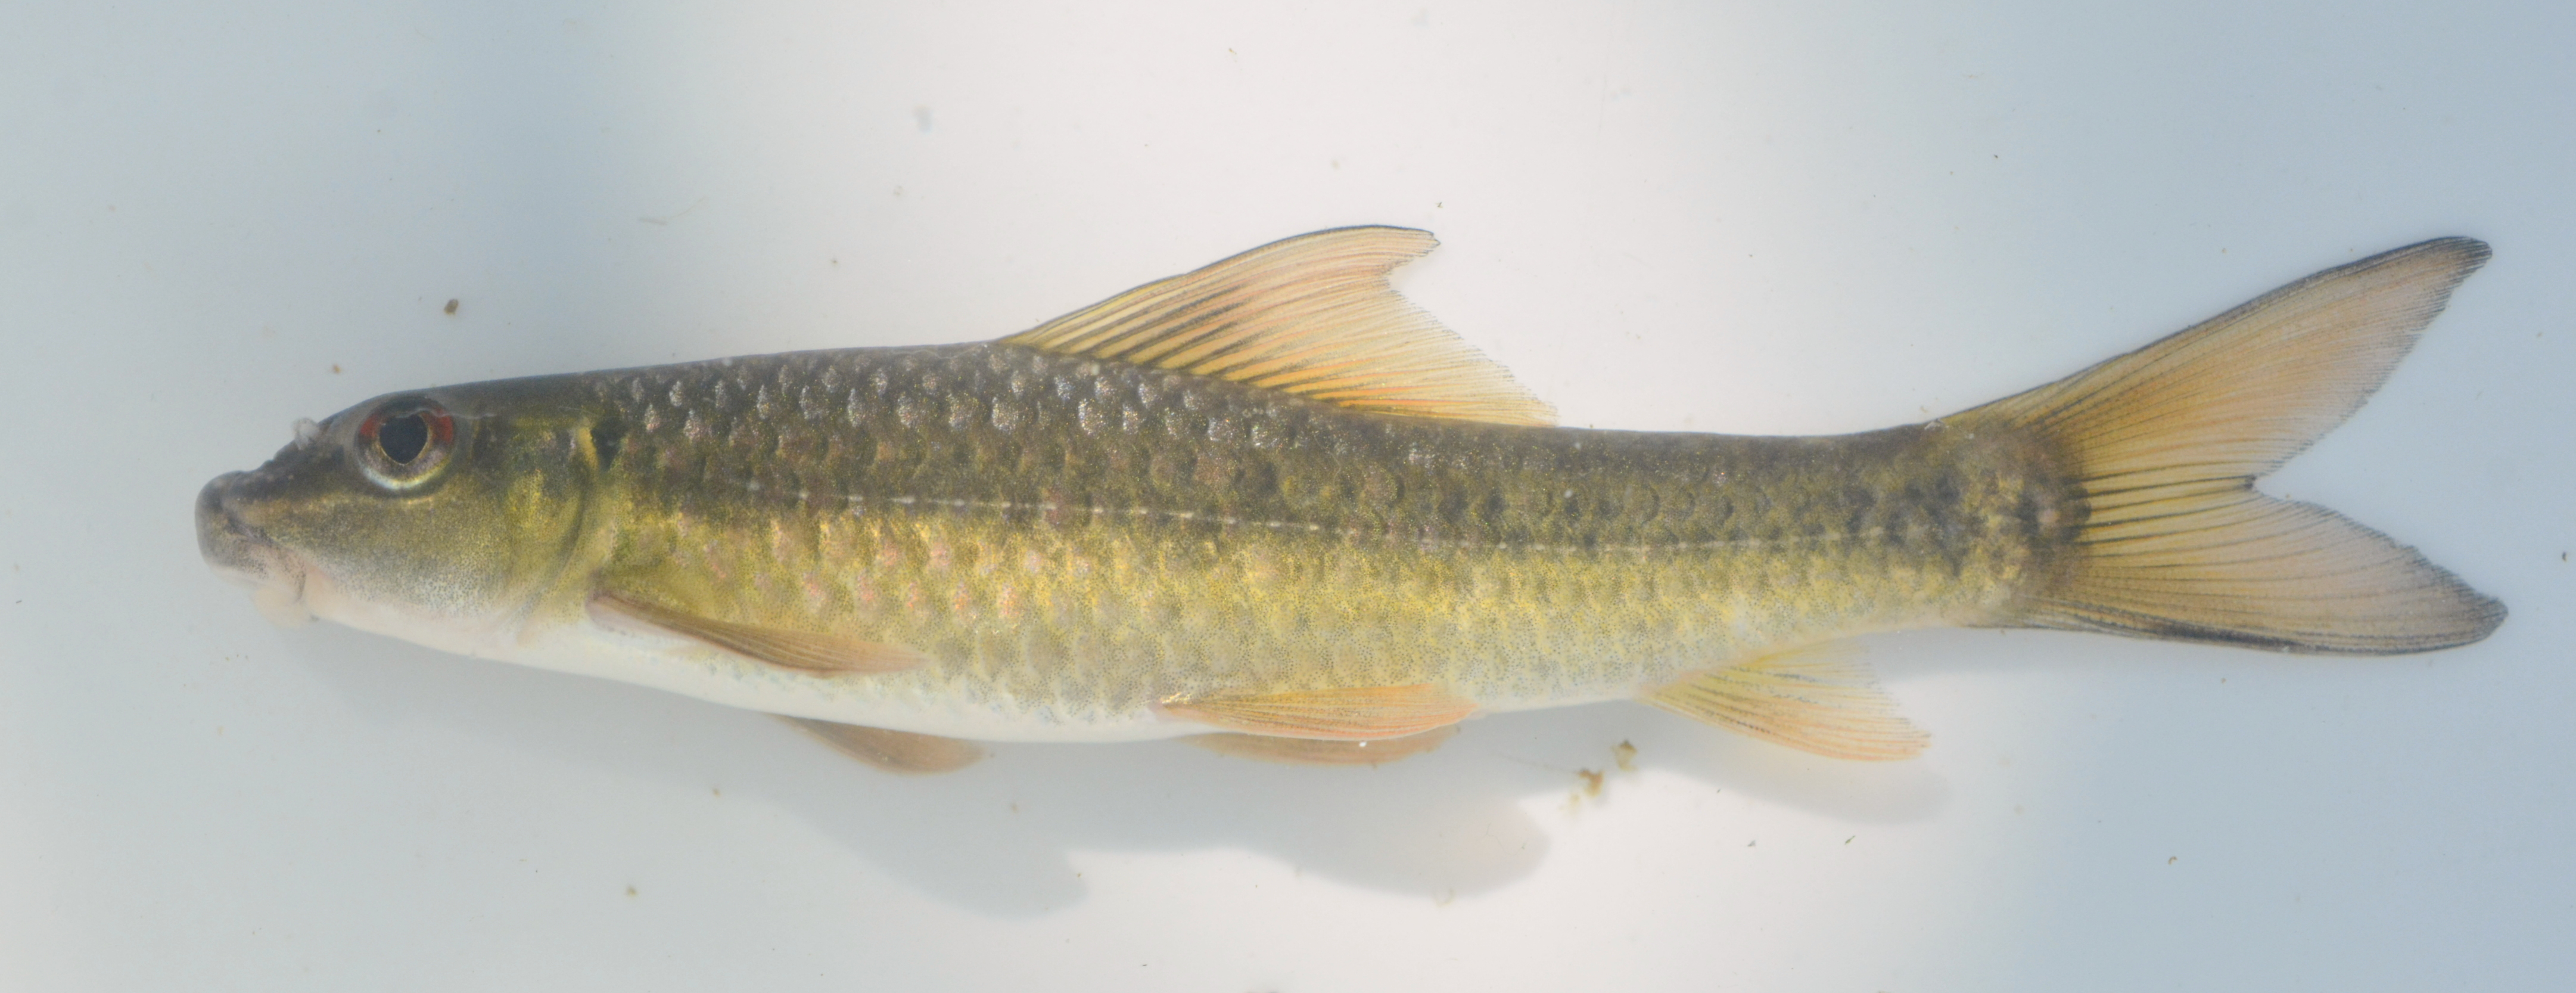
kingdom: Animalia
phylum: Chordata
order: Cypriniformes
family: Cyprinidae
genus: Labeo
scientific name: Labeo cylindricus
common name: Redeye labeo
